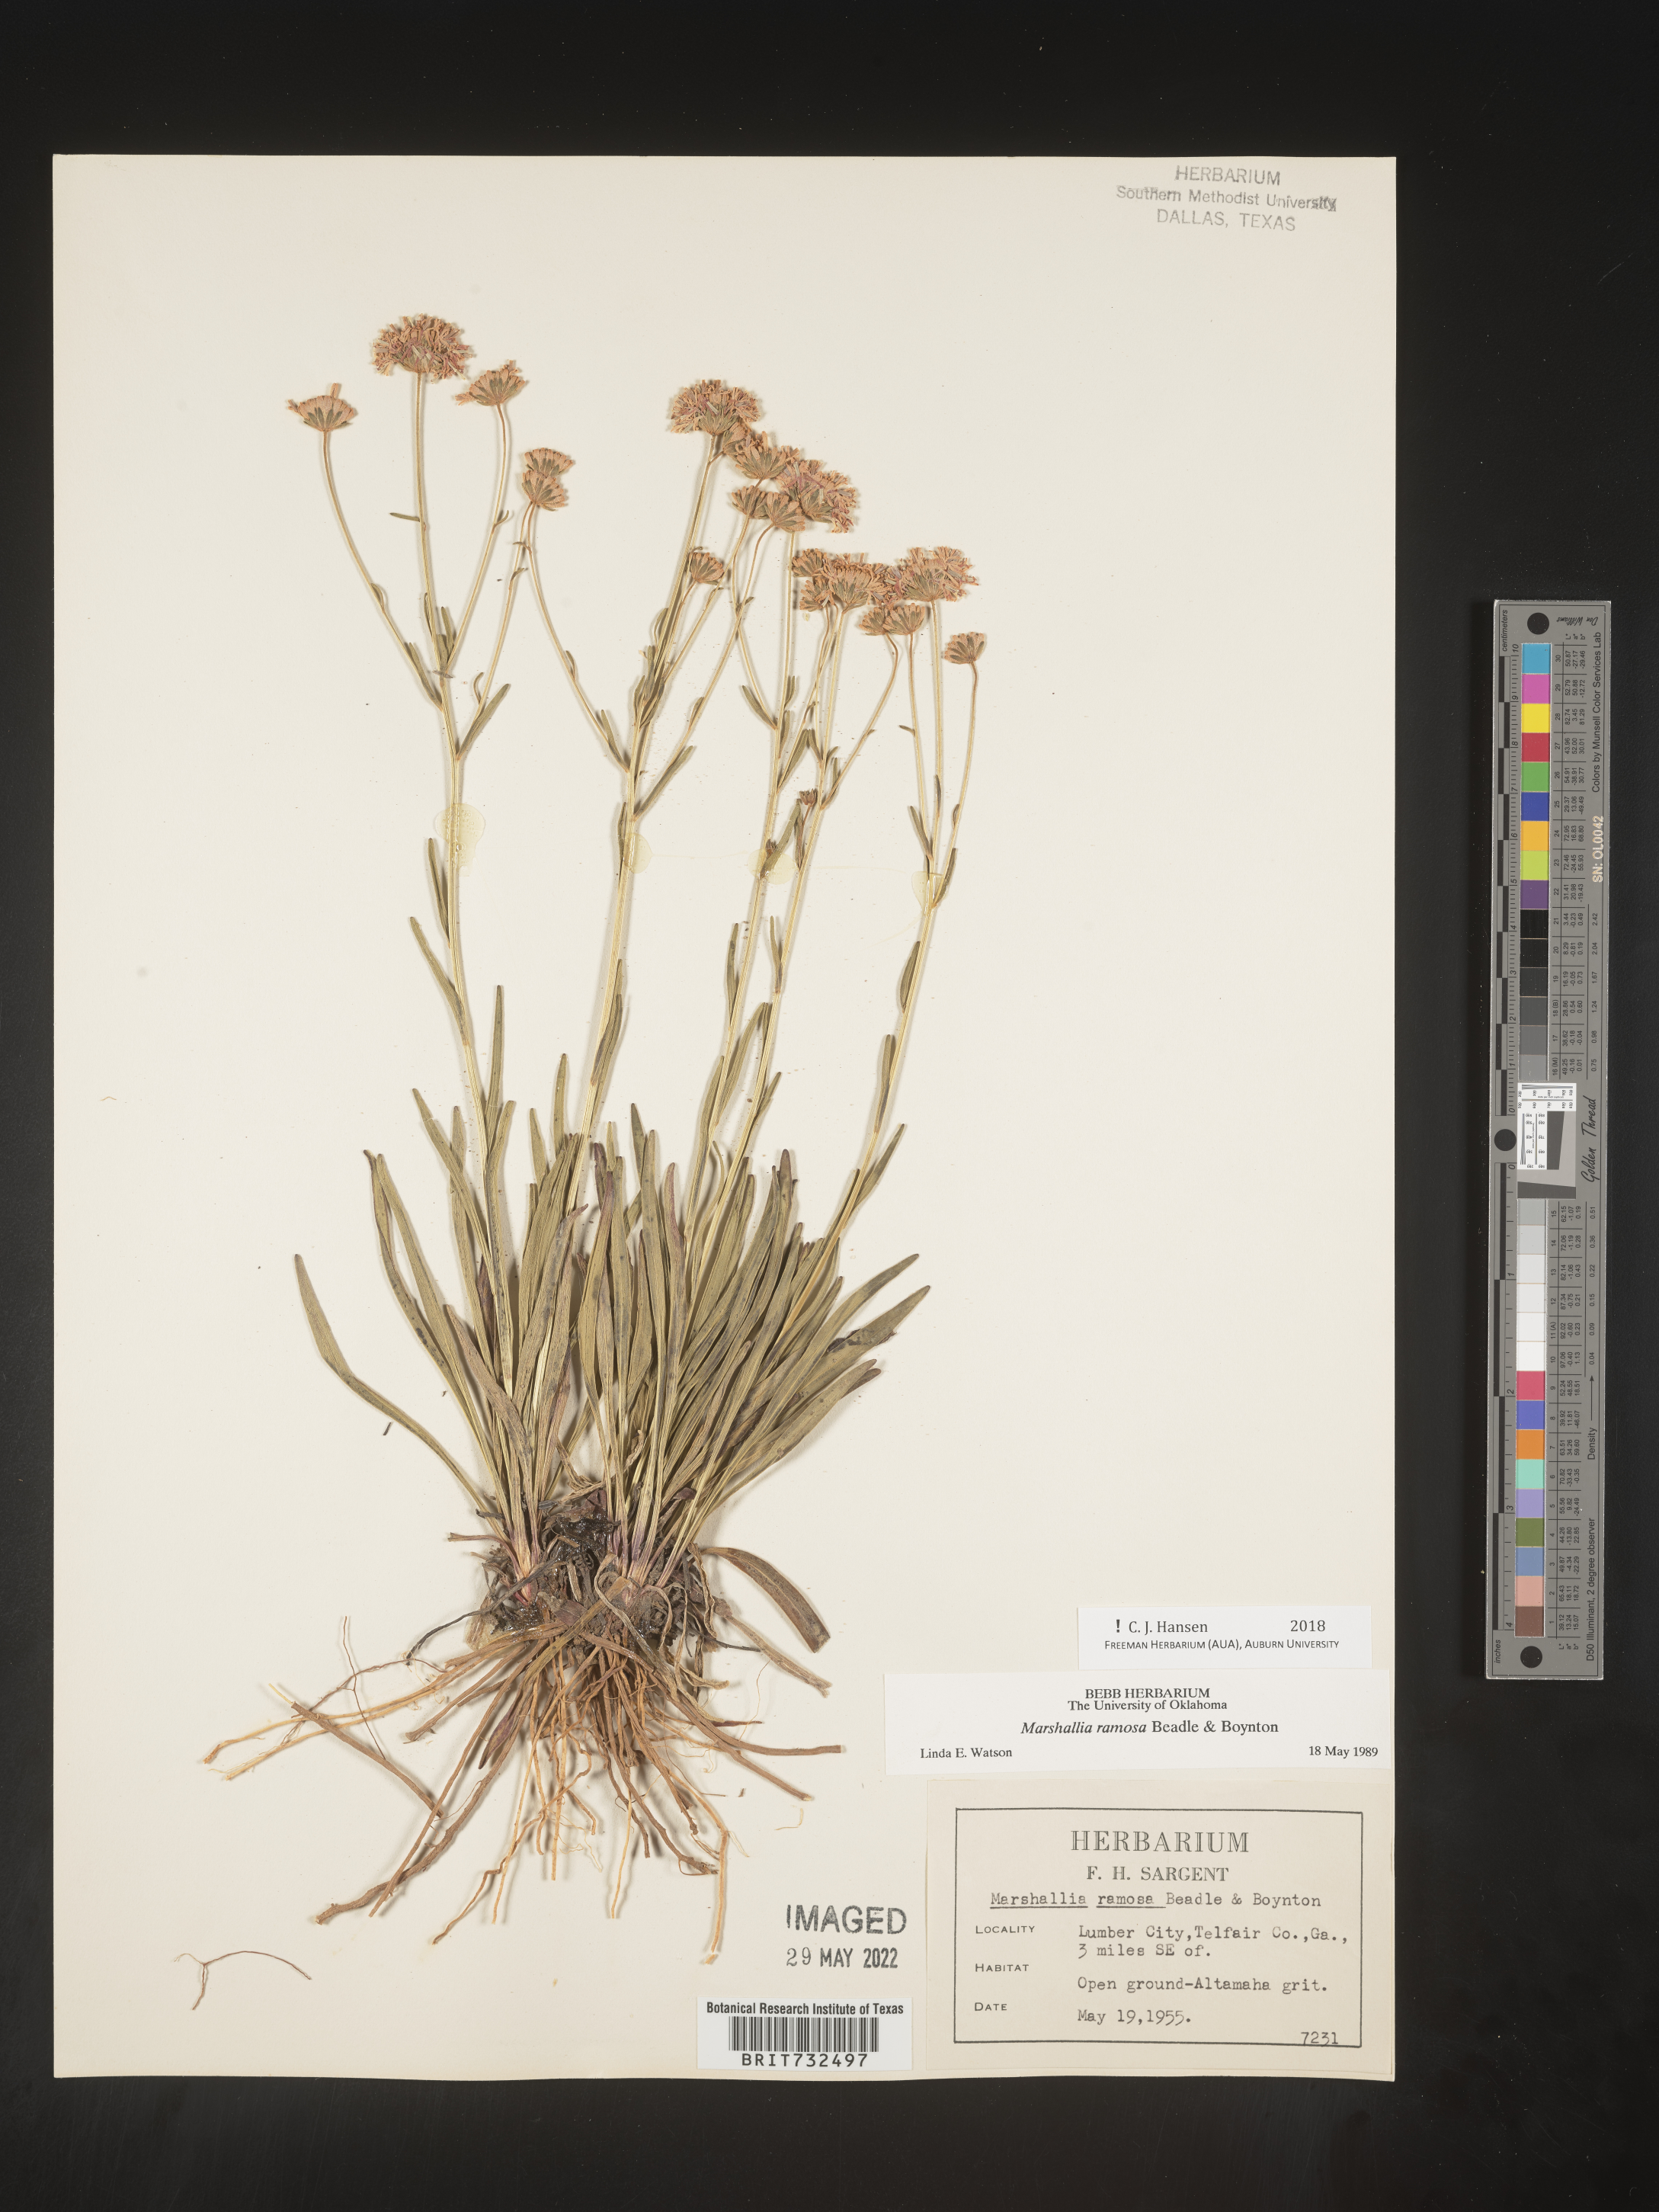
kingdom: Plantae
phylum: Tracheophyta
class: Magnoliopsida
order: Asterales
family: Asteraceae
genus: Marshallia
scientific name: Marshallia ramosa
